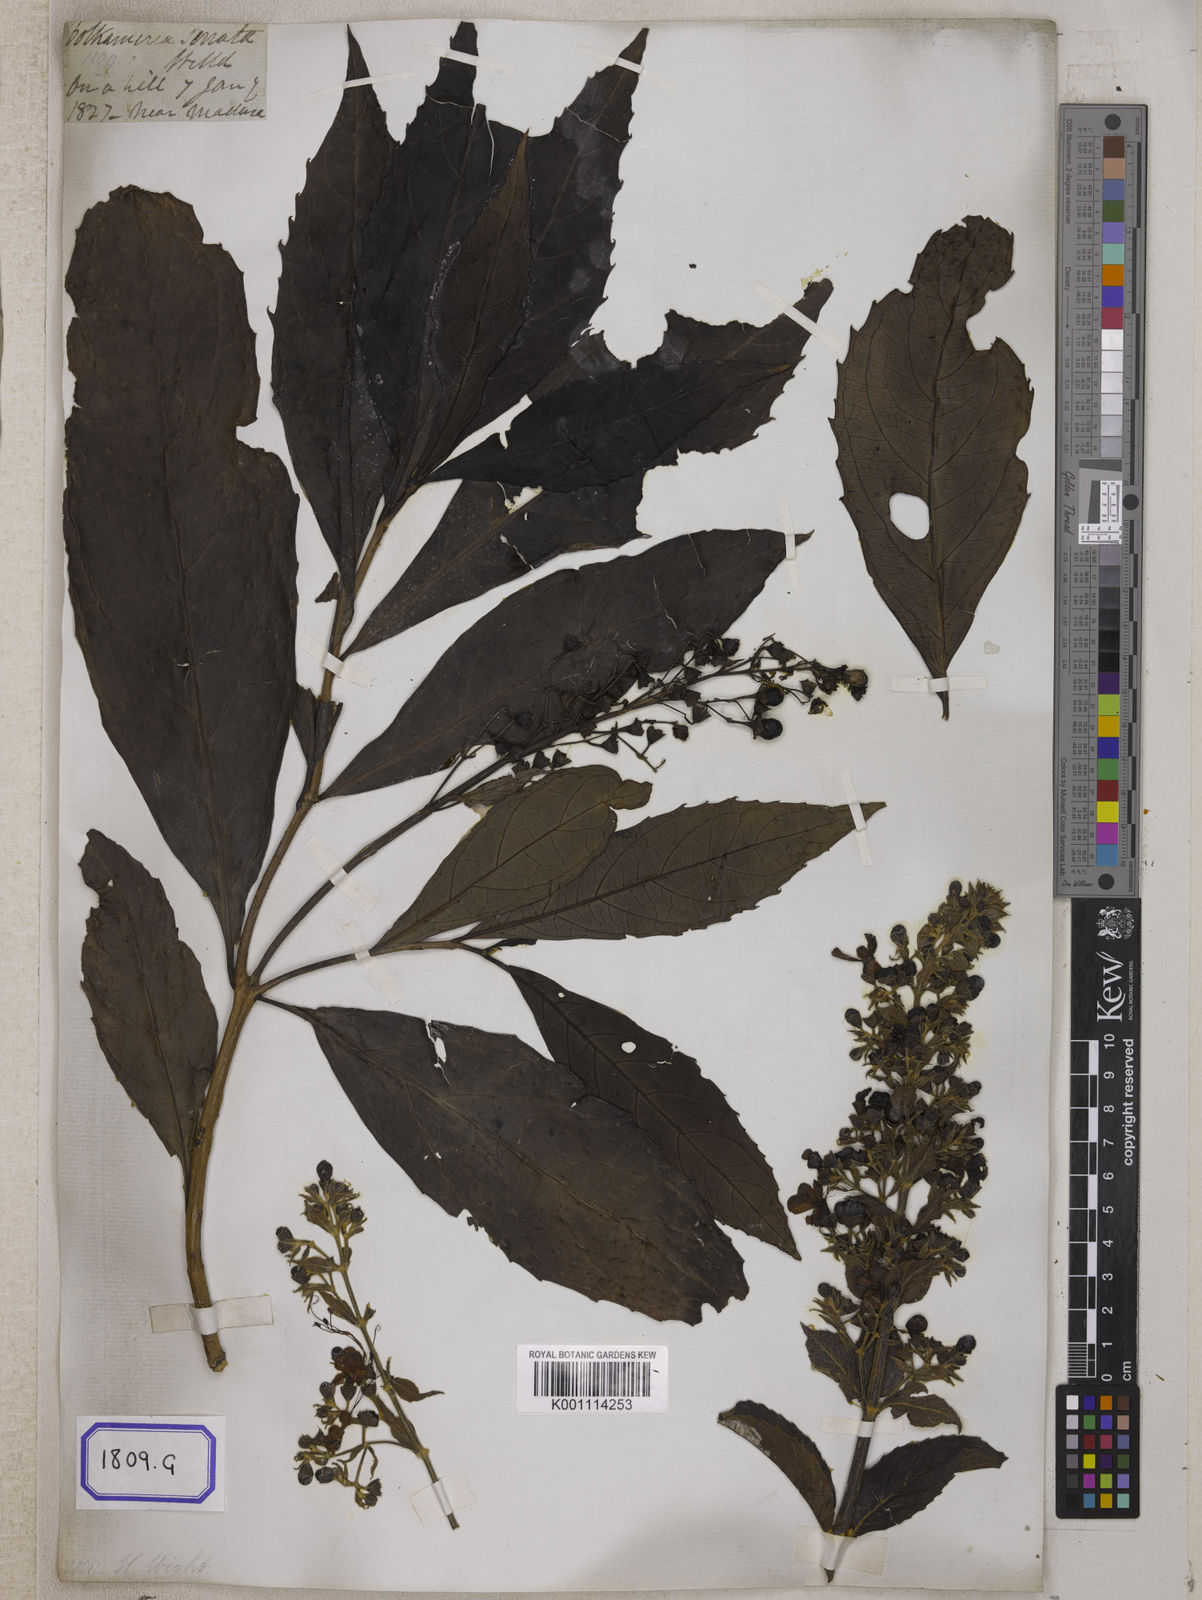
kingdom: Plantae
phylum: Tracheophyta
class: Magnoliopsida
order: Lamiales
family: Lamiaceae
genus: Clerodendrum
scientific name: Clerodendrum
